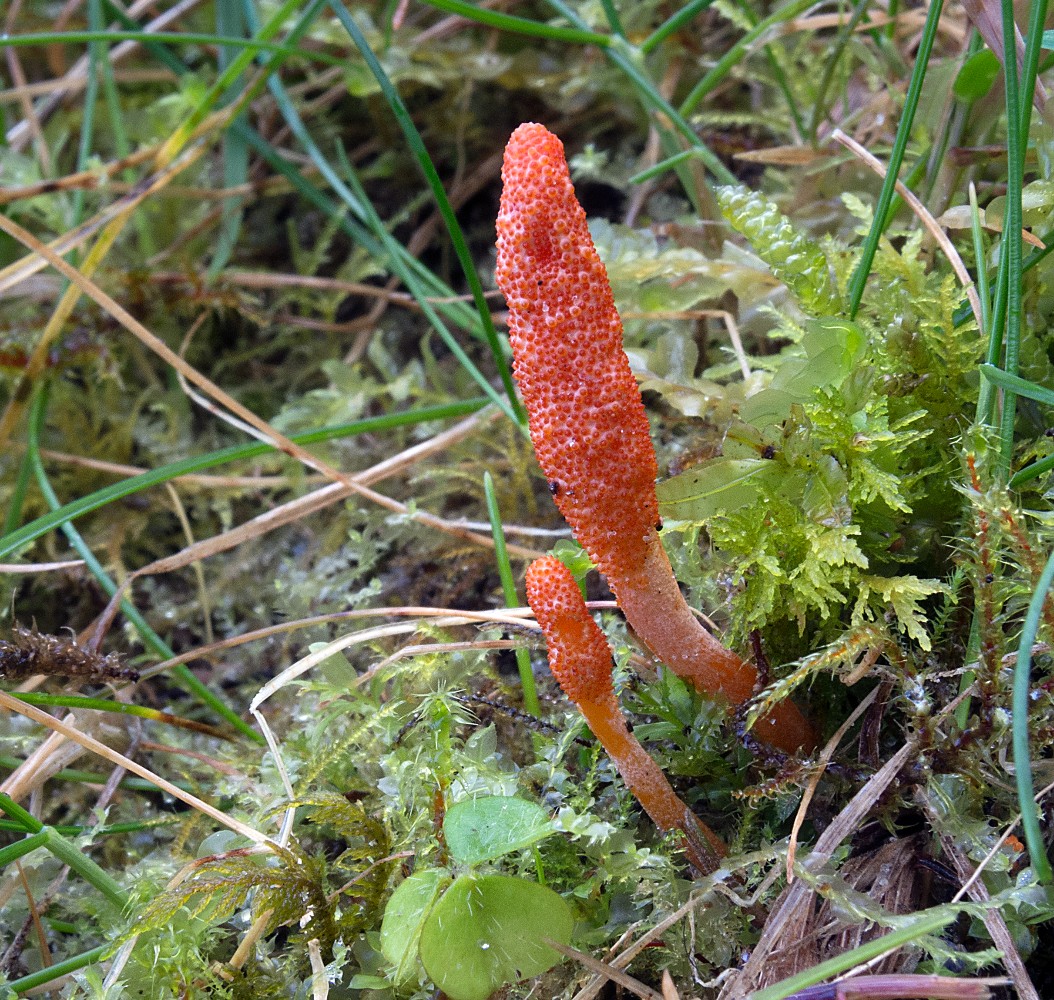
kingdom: Fungi
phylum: Ascomycota
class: Sordariomycetes
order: Hypocreales
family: Cordycipitaceae
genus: Cordyceps
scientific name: Cordyceps militaris
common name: puppe-snyltekølle
